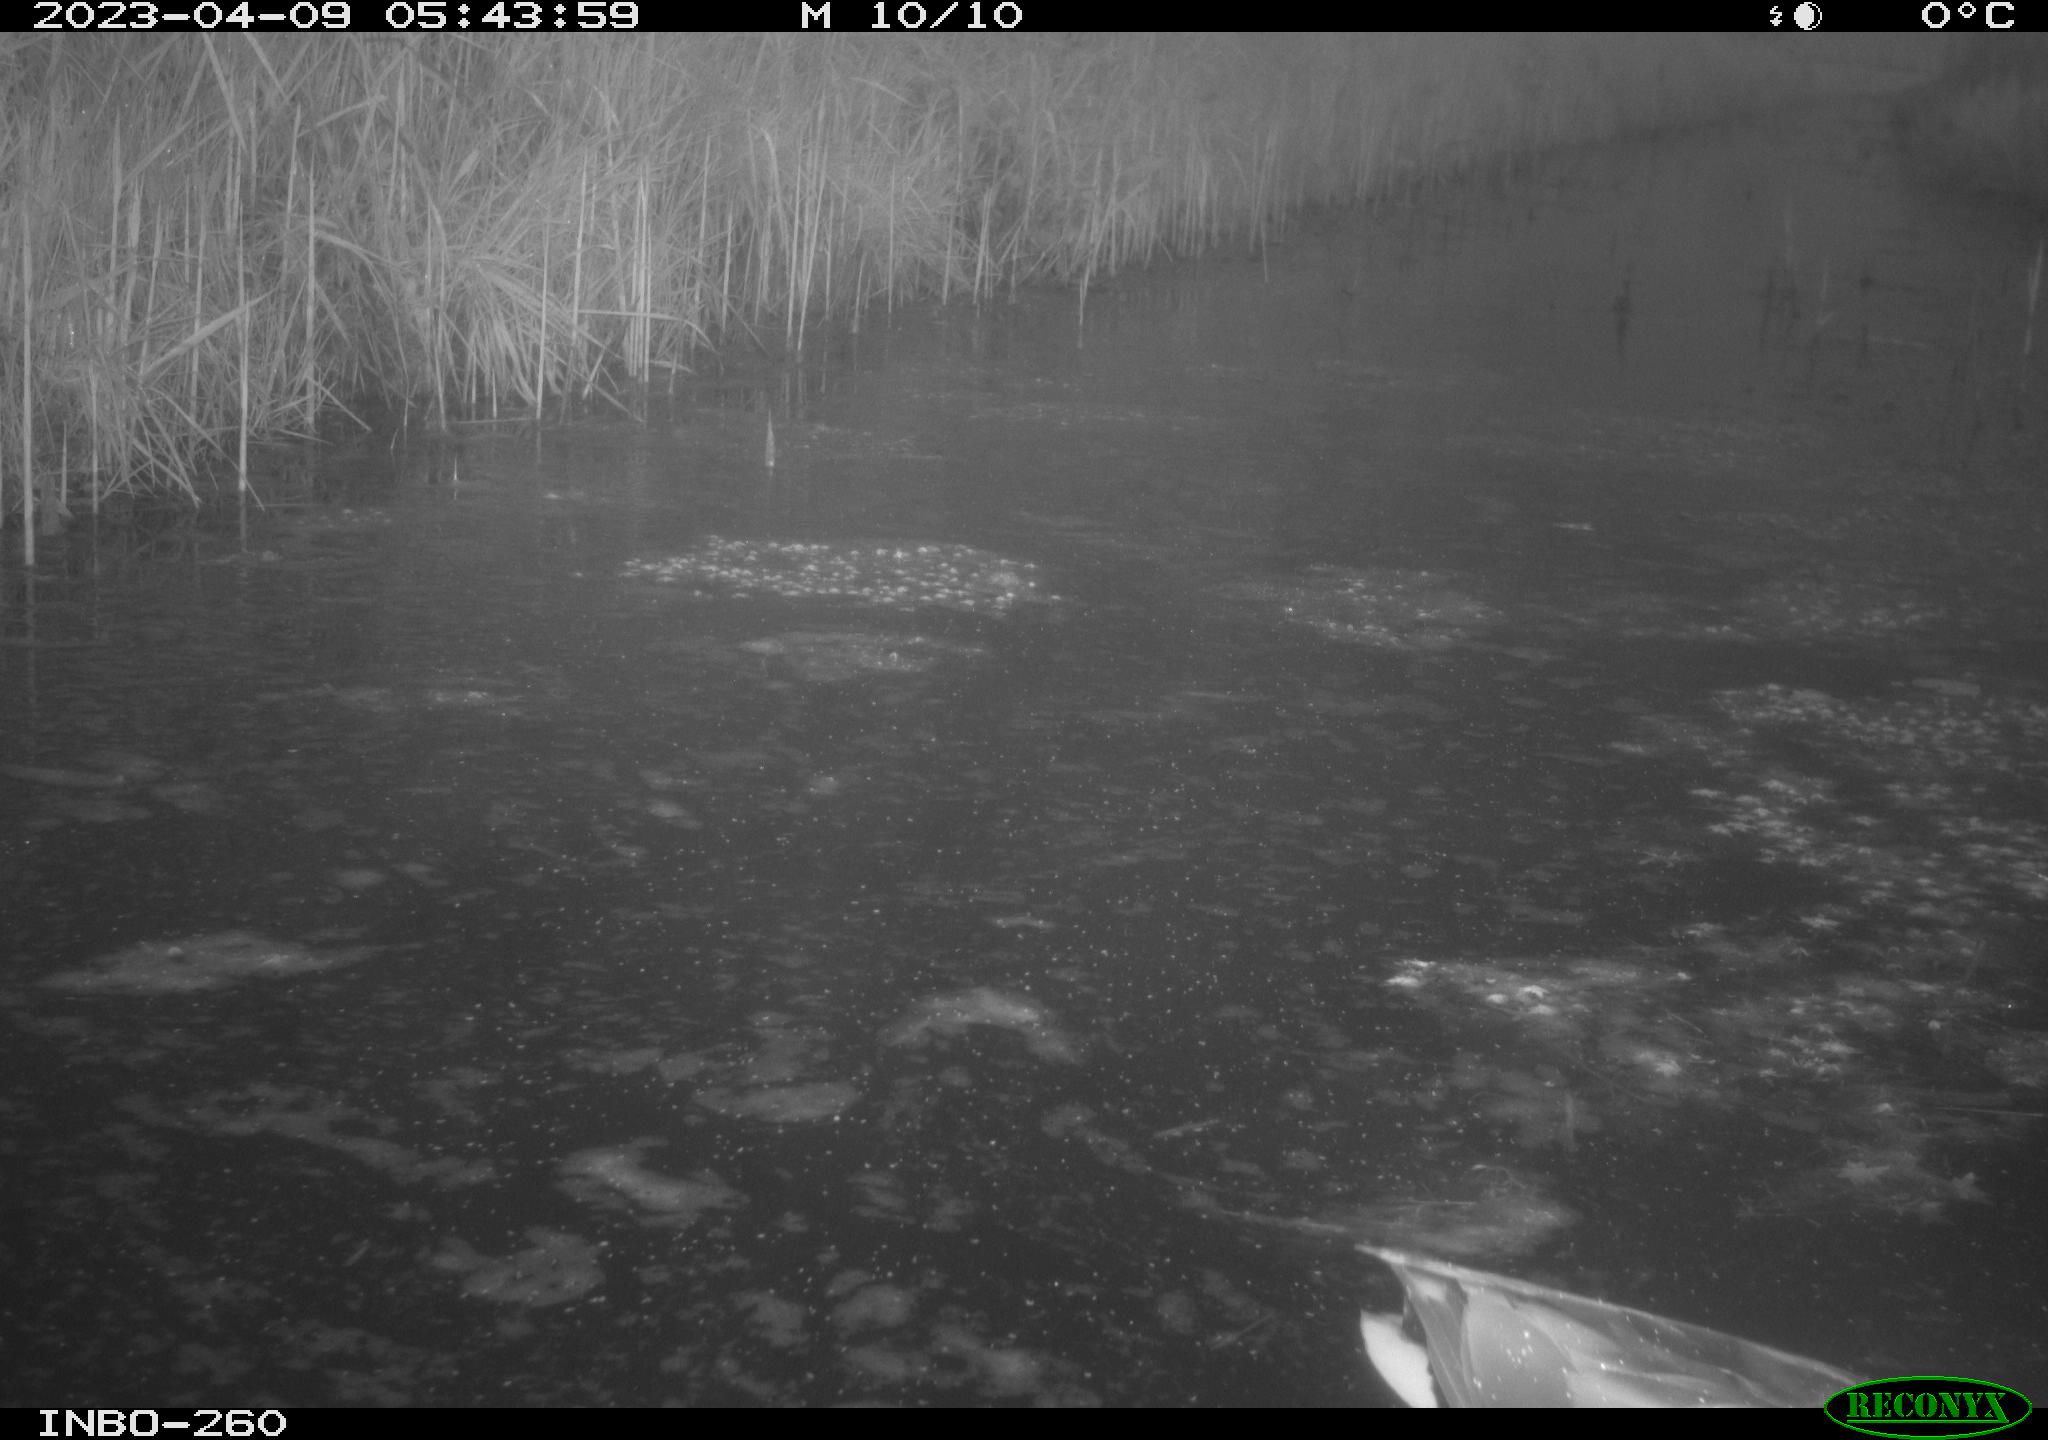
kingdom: Animalia
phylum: Chordata
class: Aves
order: Anseriformes
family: Anatidae
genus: Anas
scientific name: Anas
